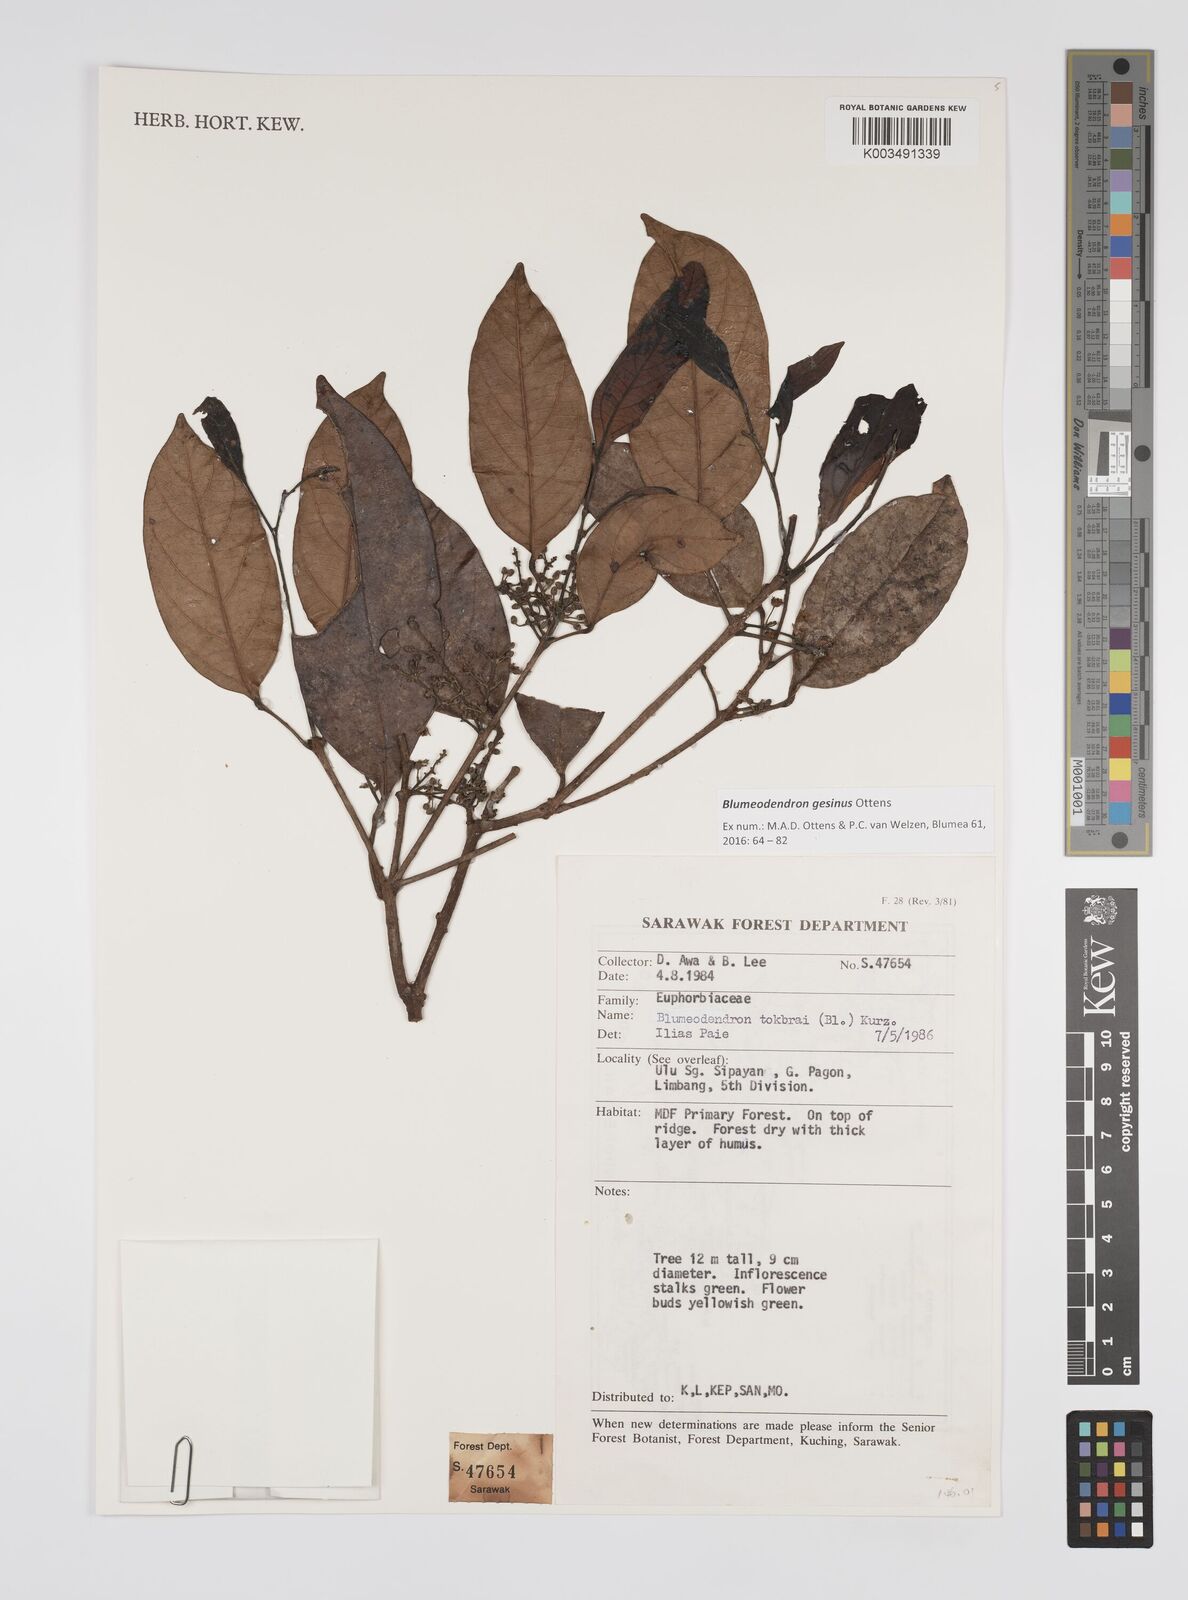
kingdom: Plantae
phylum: Tracheophyta
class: Magnoliopsida
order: Malpighiales
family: Euphorbiaceae
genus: Blumeodendron
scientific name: Blumeodendron gesinus
